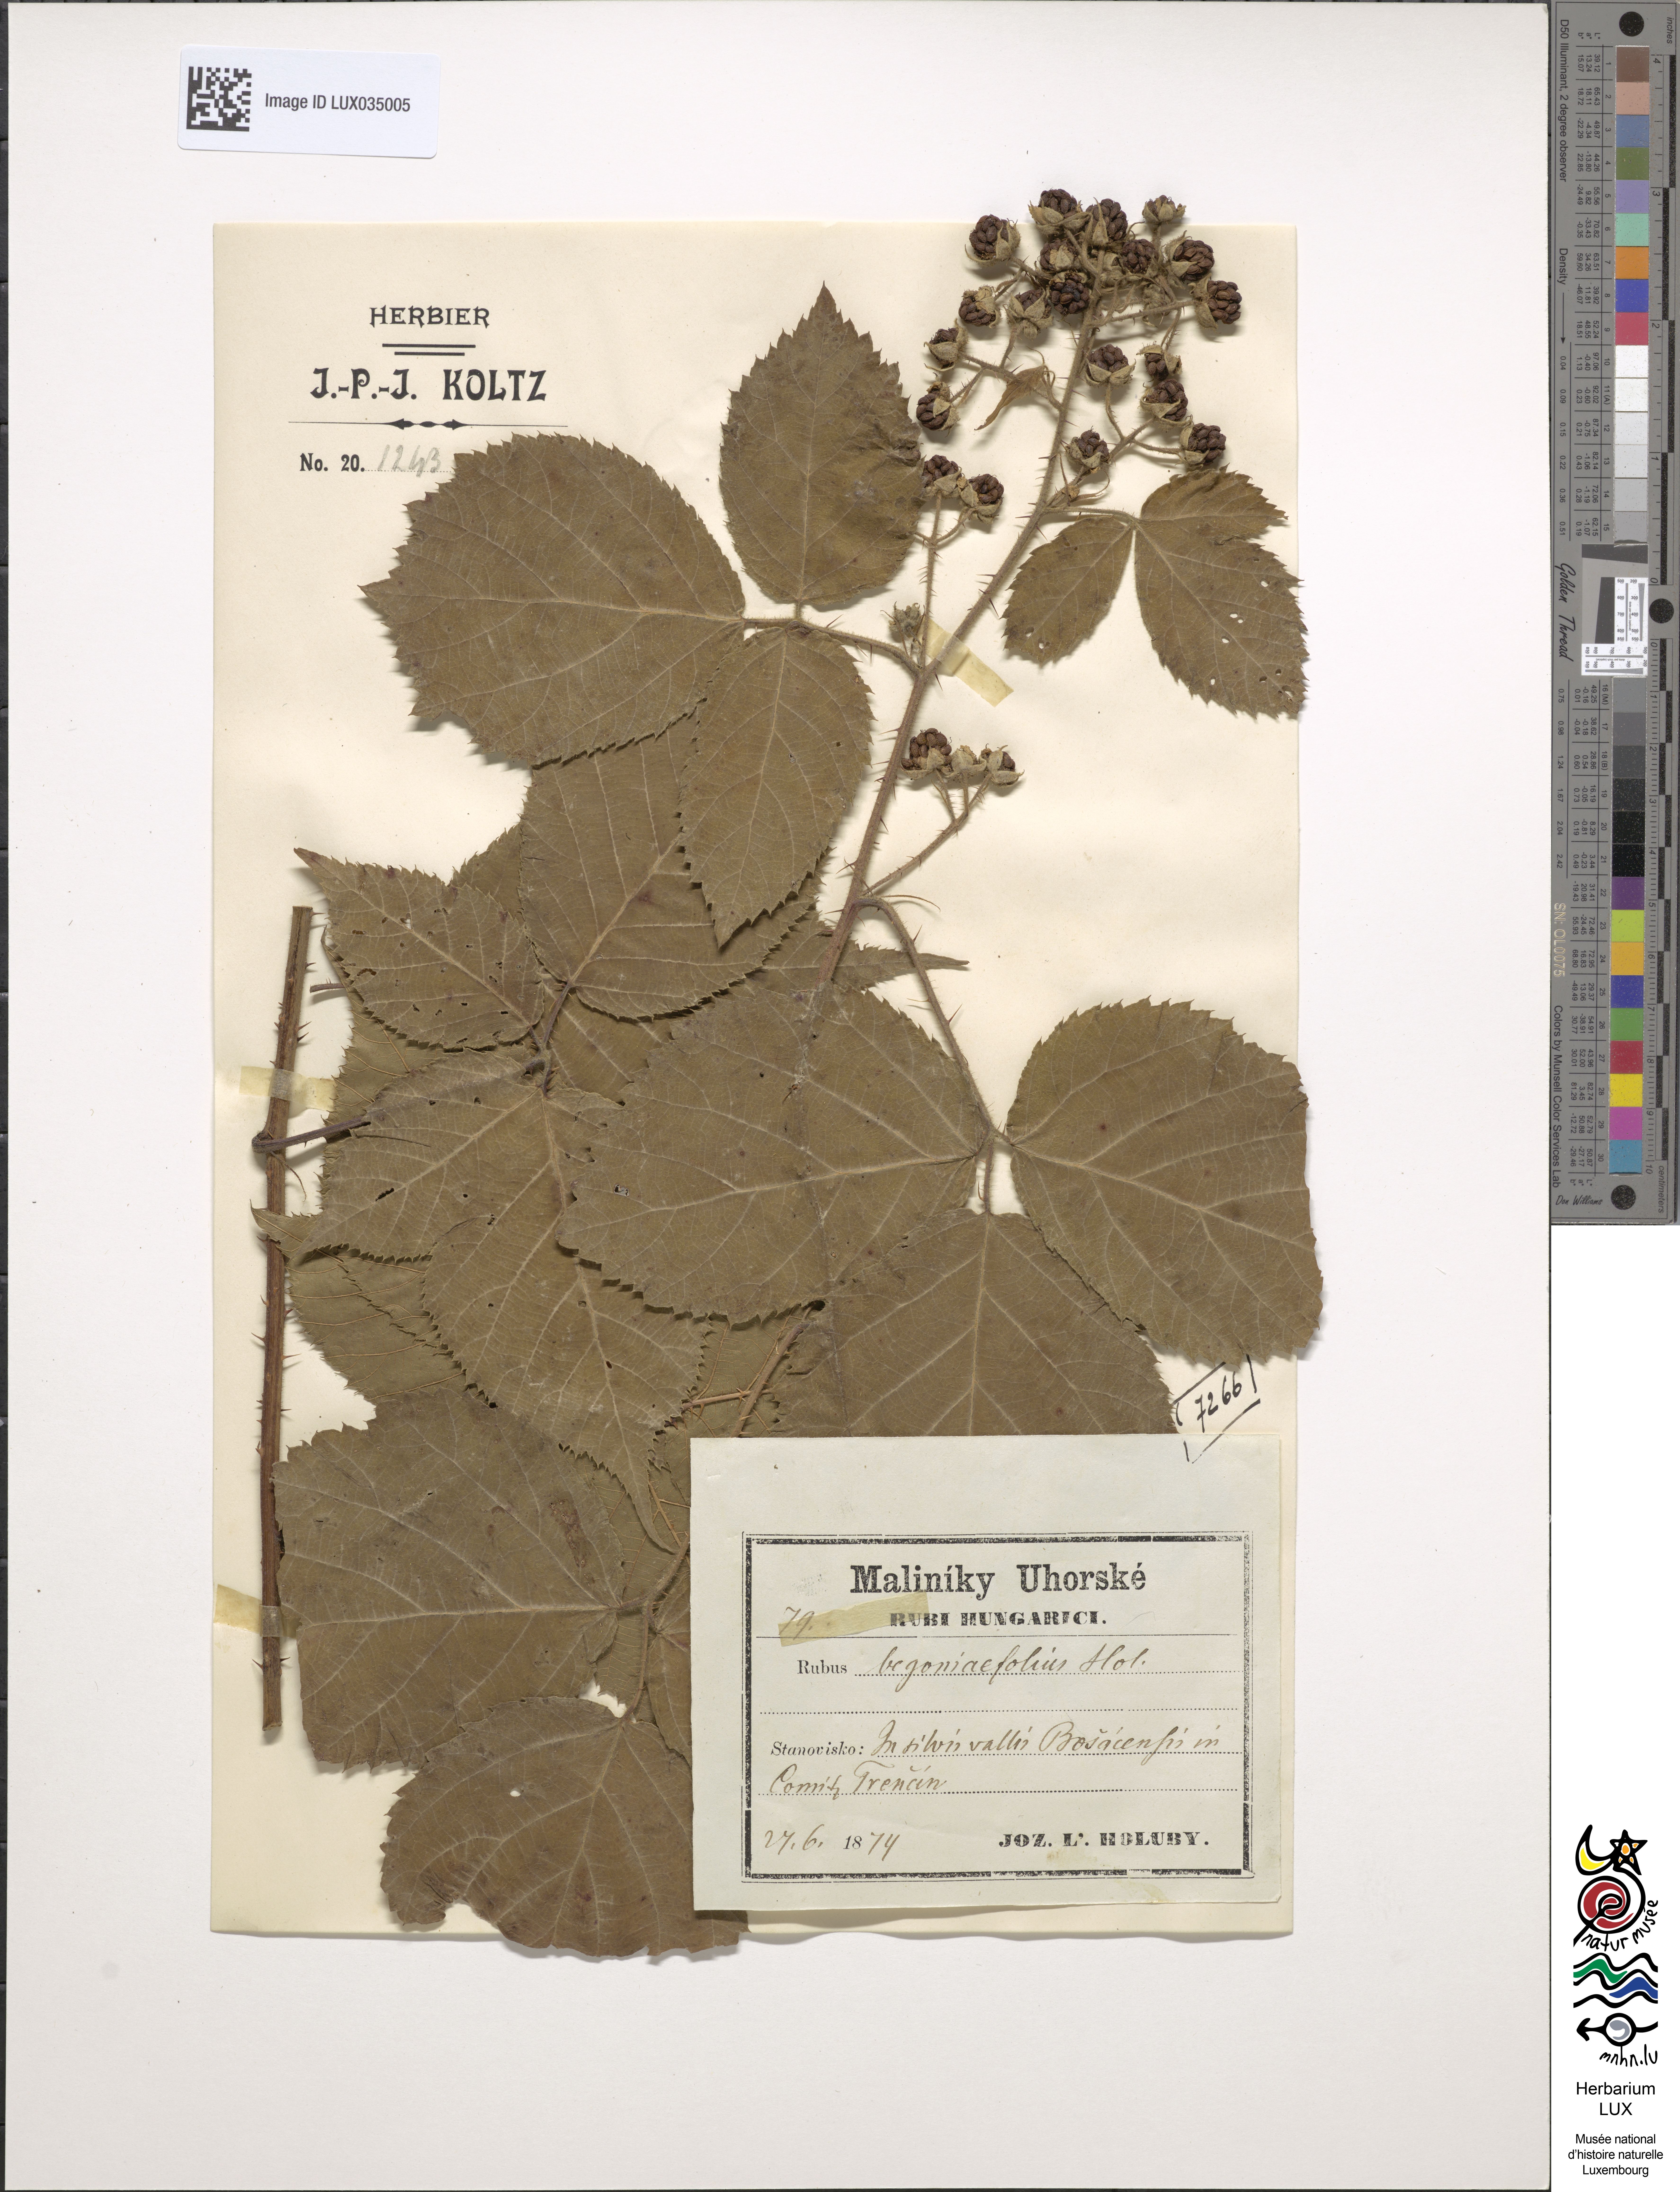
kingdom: Plantae
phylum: Tracheophyta
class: Magnoliopsida
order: Rosales
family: Rosaceae
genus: Rubus
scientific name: Rubus hirtus
